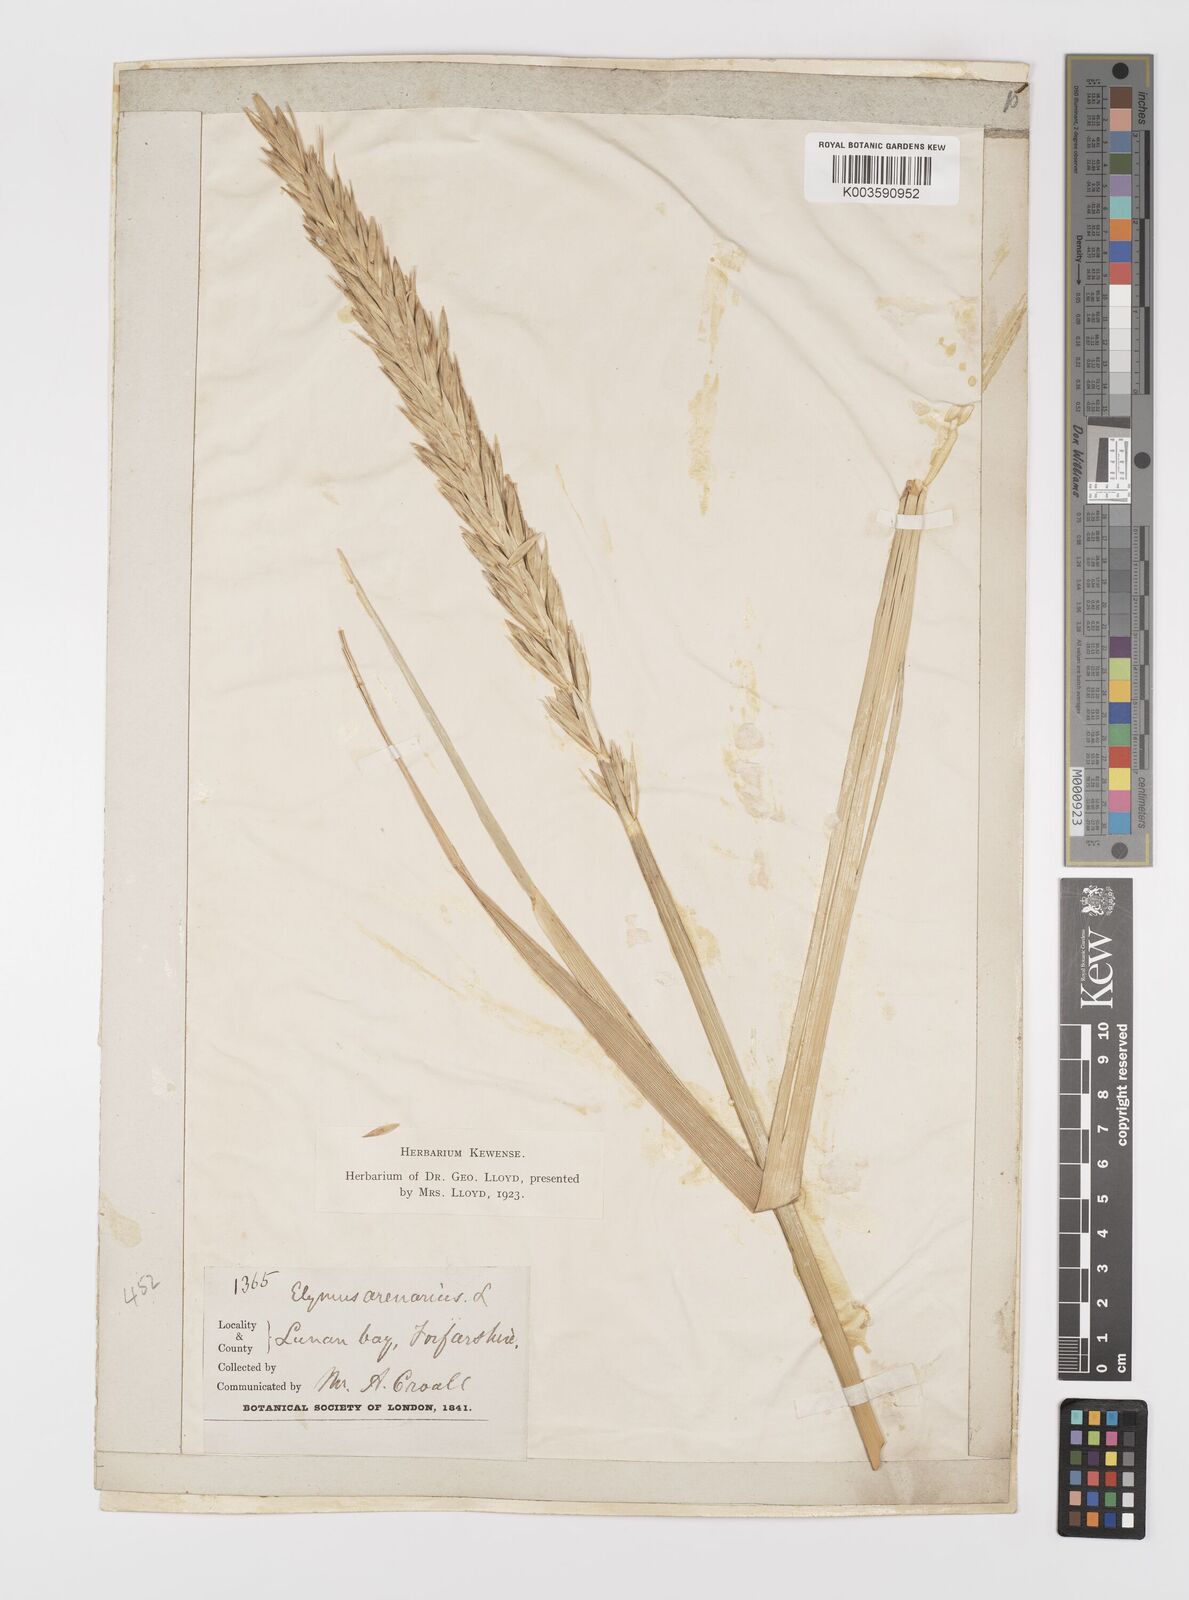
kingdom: Plantae
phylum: Tracheophyta
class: Liliopsida
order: Poales
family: Poaceae
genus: Leymus
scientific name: Leymus arenarius
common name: Lyme-grass
